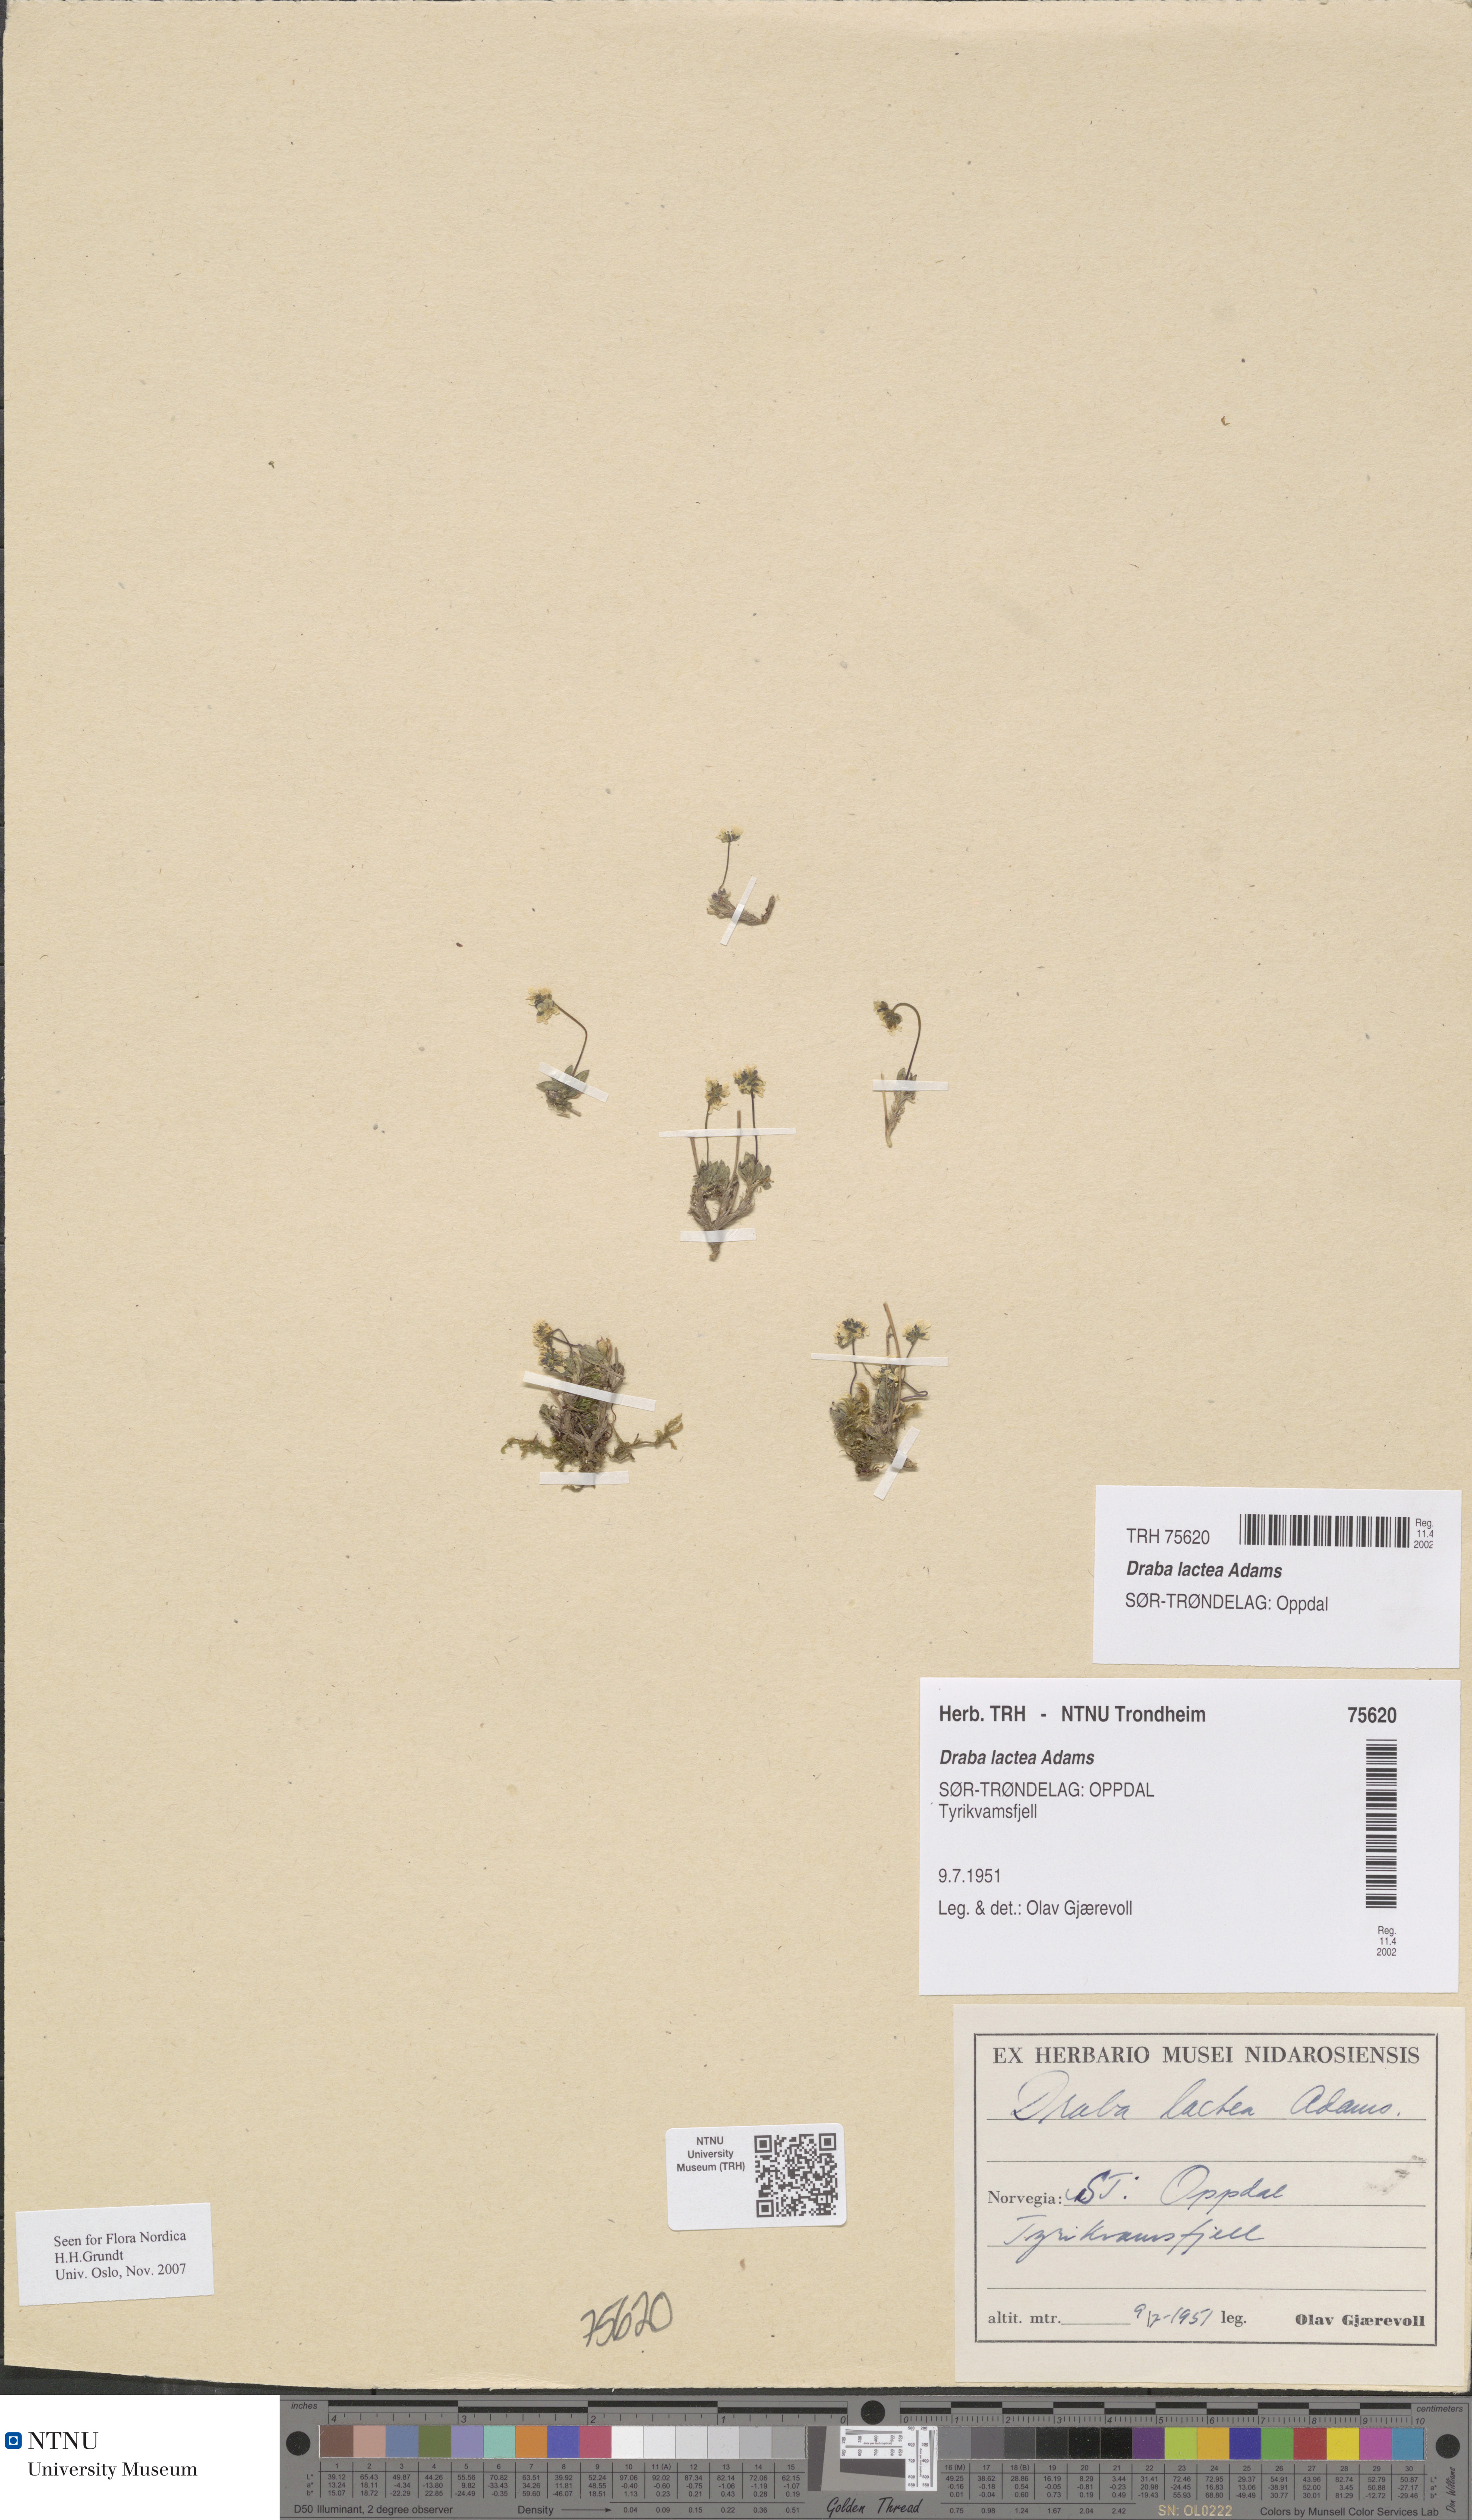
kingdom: Plantae
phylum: Tracheophyta
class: Magnoliopsida
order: Brassicales
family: Brassicaceae
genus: Draba
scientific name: Draba lactea
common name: Milky draba
